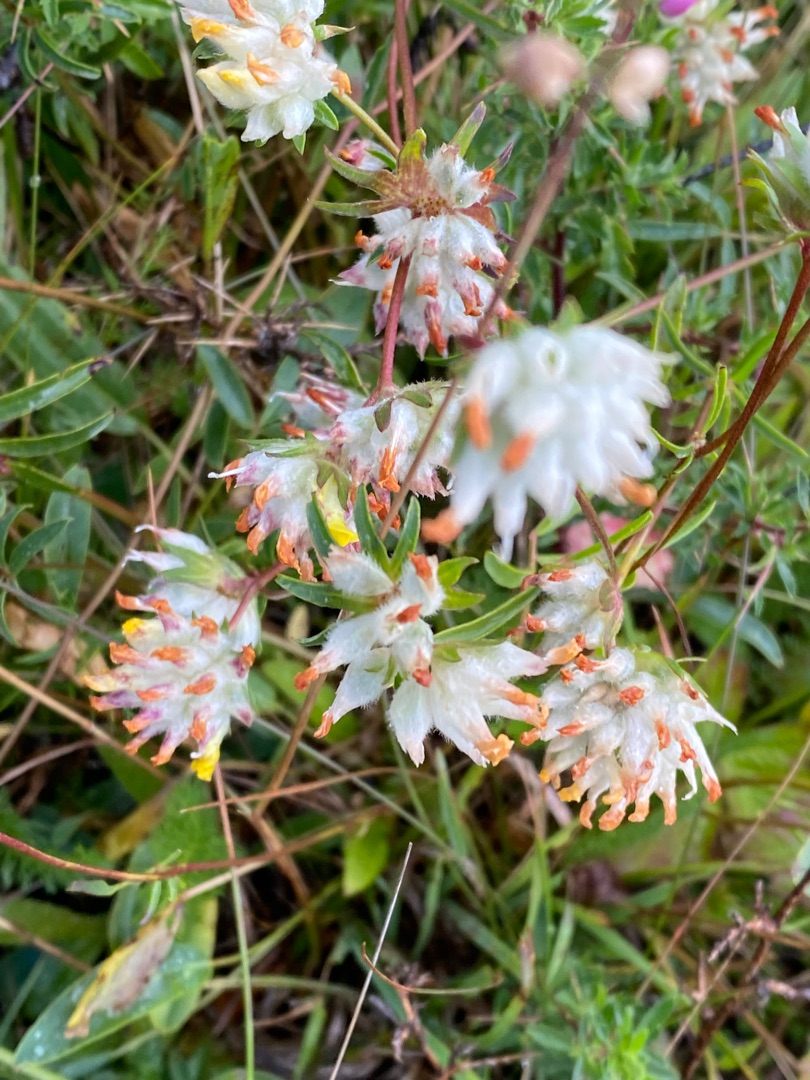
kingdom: Plantae
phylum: Tracheophyta
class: Magnoliopsida
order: Fabales
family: Fabaceae
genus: Anthyllis
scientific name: Anthyllis vulneraria
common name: Rundbælg
